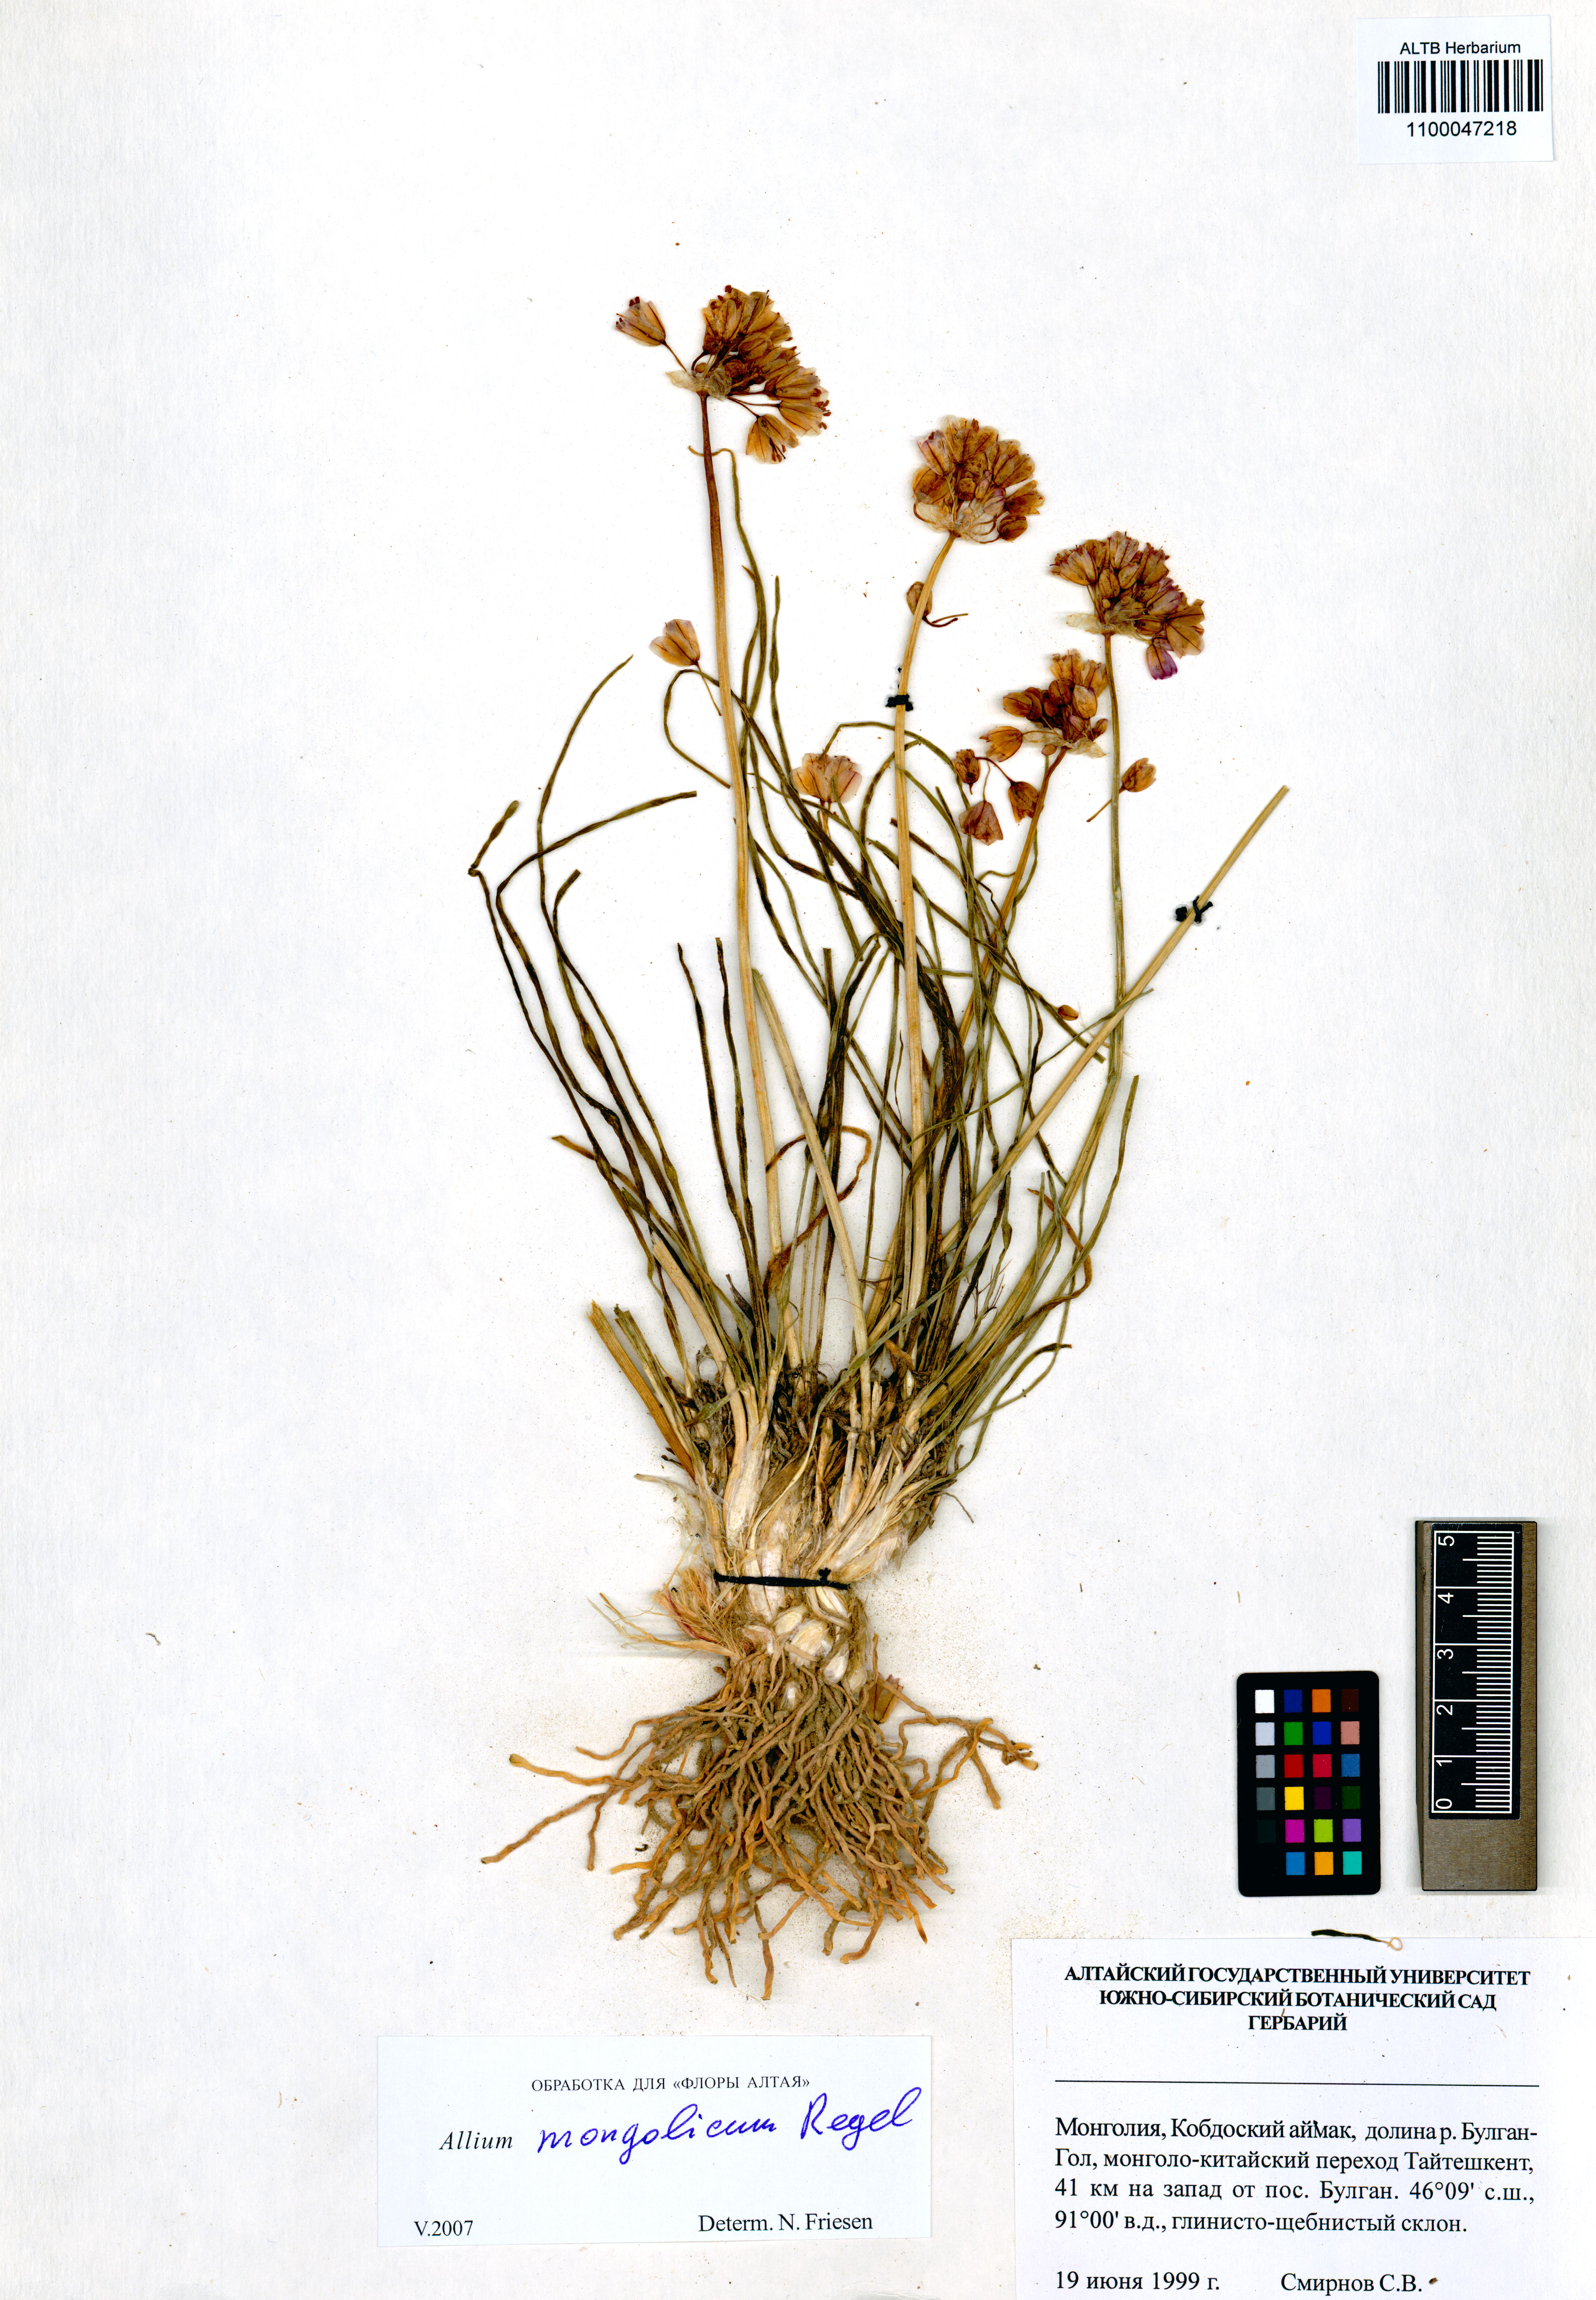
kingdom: Plantae
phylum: Tracheophyta
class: Liliopsida
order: Asparagales
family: Amaryllidaceae
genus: Allium
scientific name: Allium mongolicum
